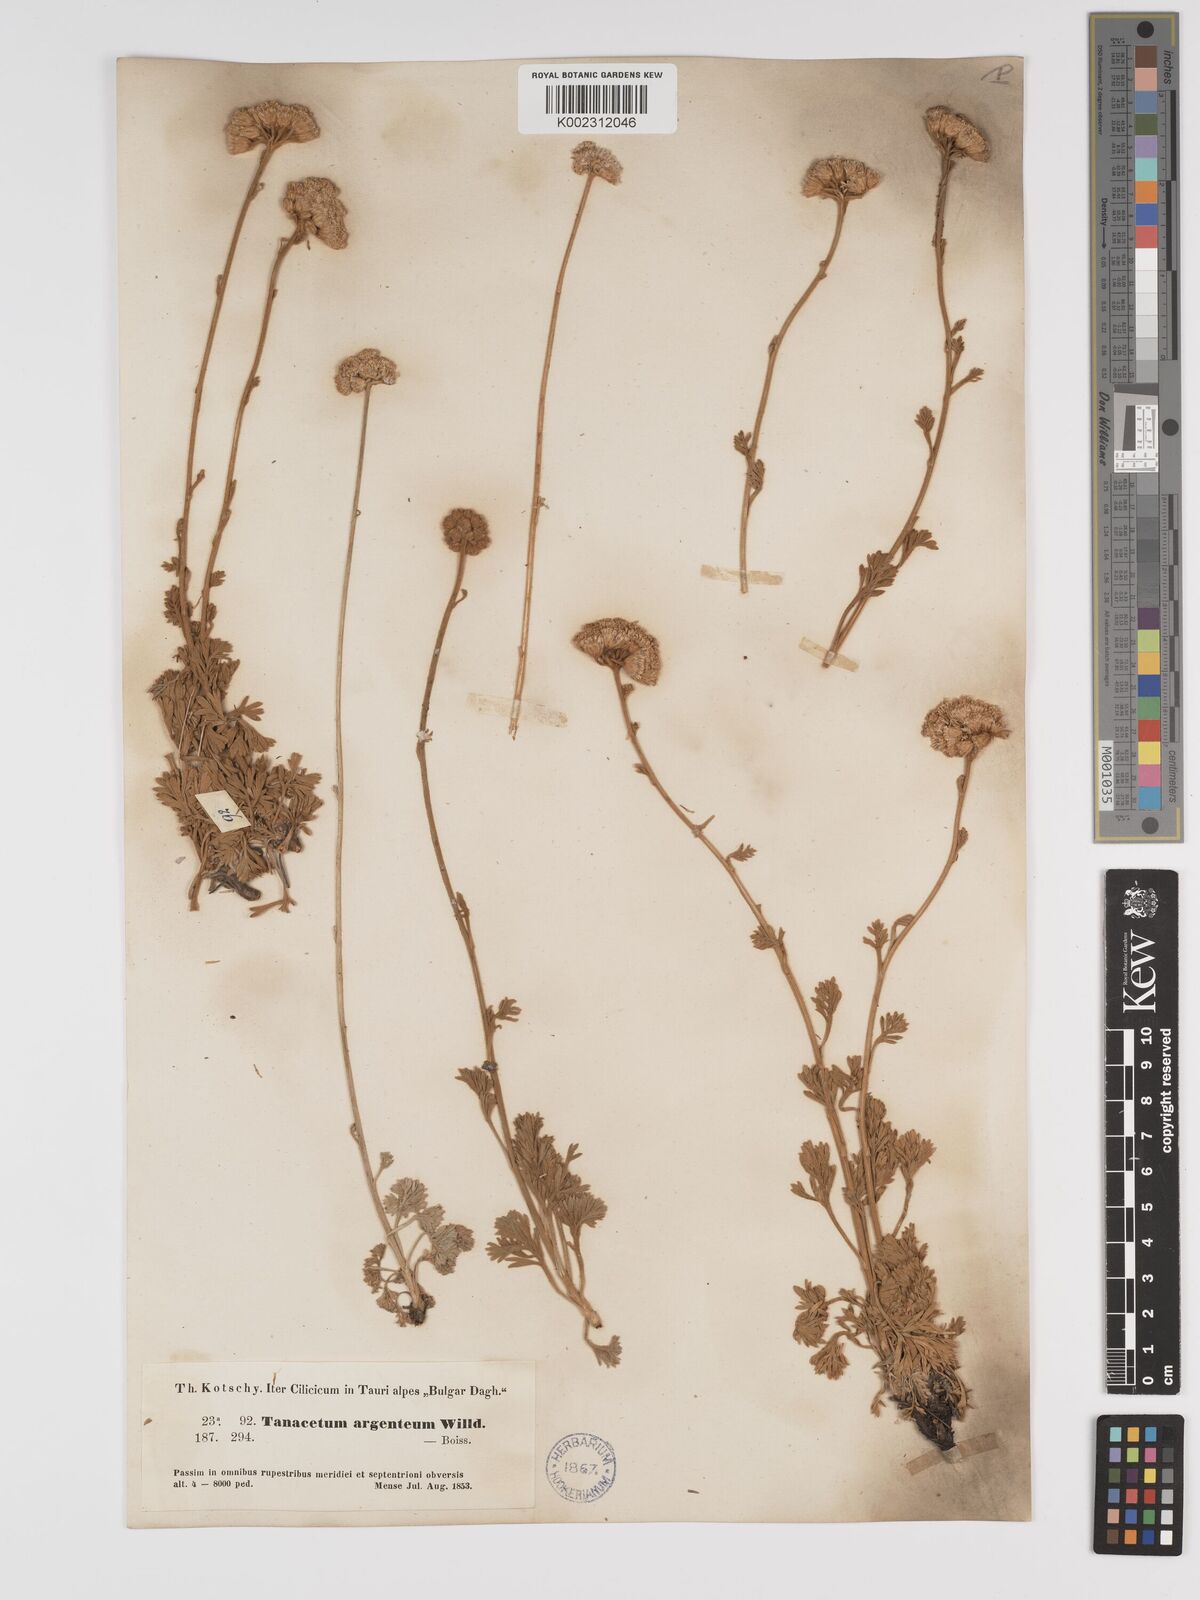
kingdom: Plantae
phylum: Tracheophyta
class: Magnoliopsida
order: Asterales
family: Asteraceae
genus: Tanacetum
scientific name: Tanacetum argenteum
